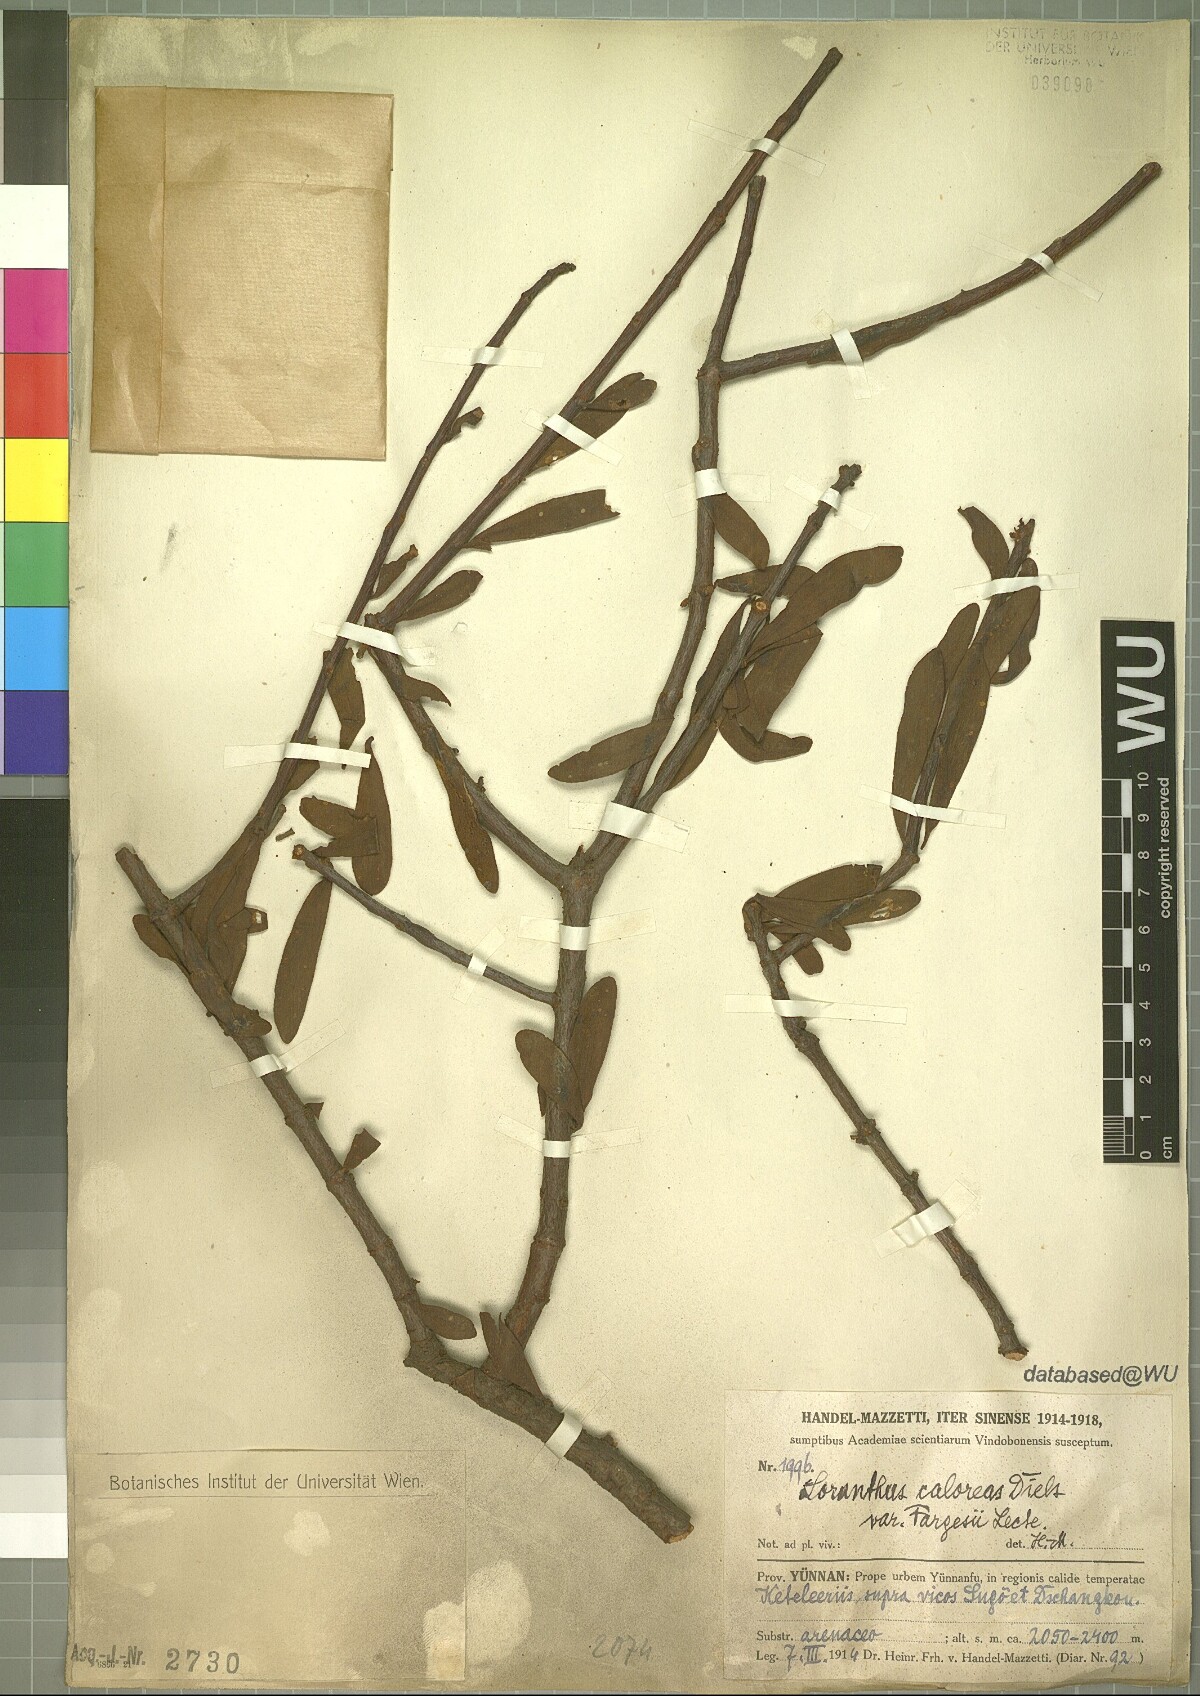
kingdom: Plantae
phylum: Tracheophyta
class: Magnoliopsida
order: Santalales
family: Loranthaceae
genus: Taxillus
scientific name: Taxillus caloreas
